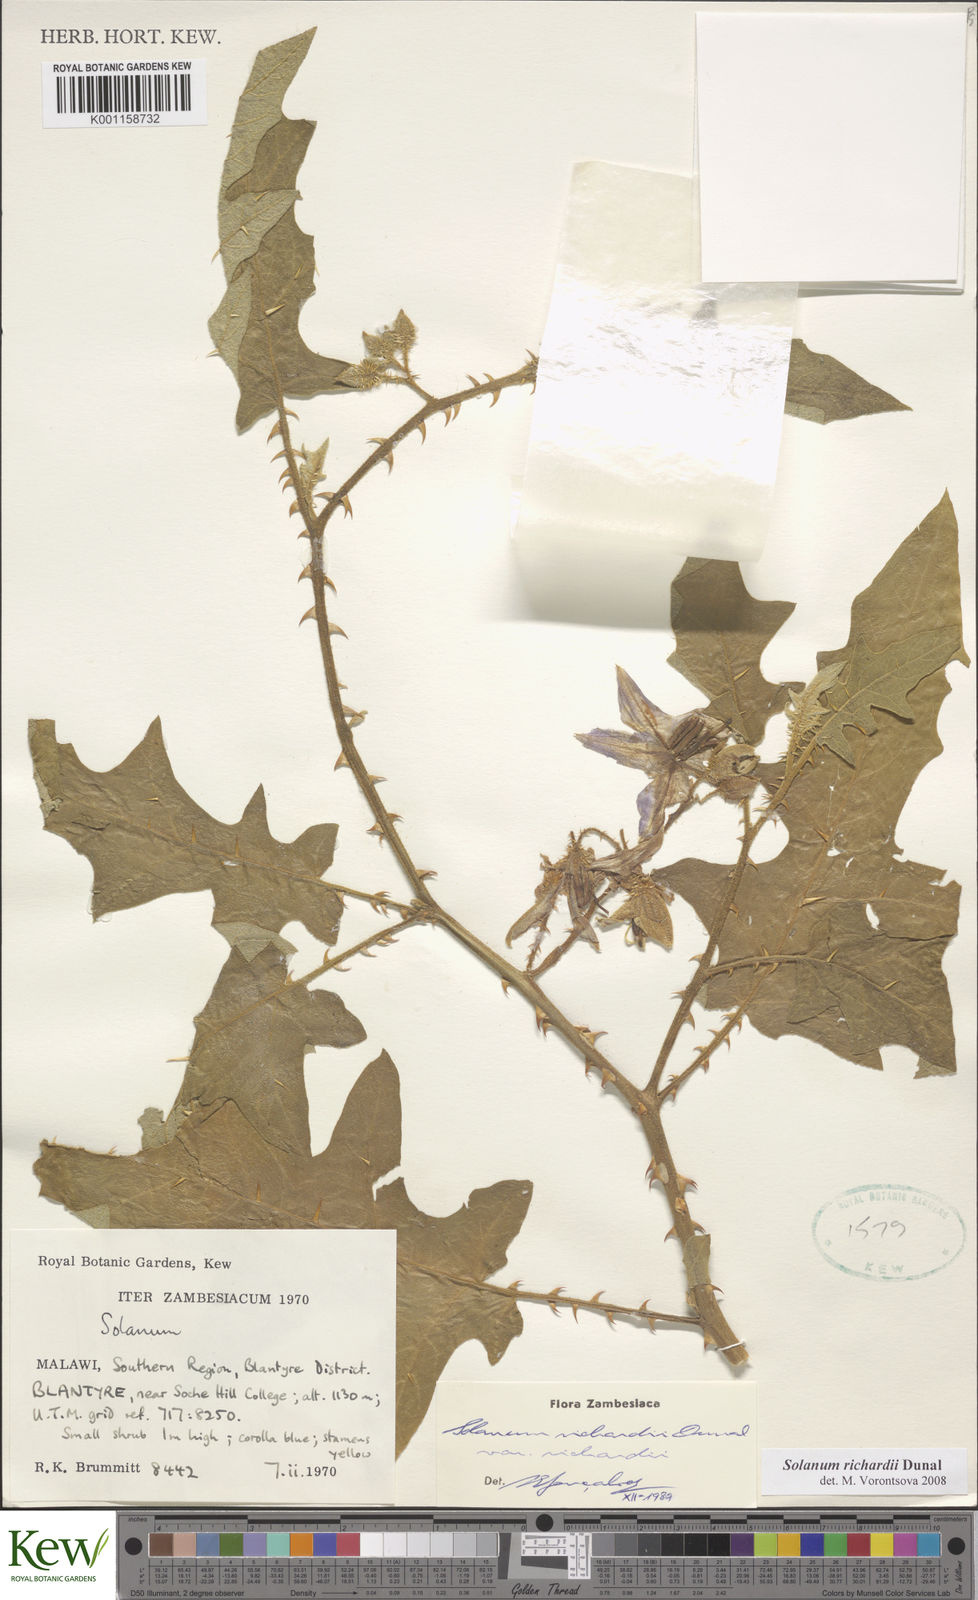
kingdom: Plantae
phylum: Tracheophyta
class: Magnoliopsida
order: Solanales
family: Solanaceae
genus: Solanum
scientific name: Solanum richardii
